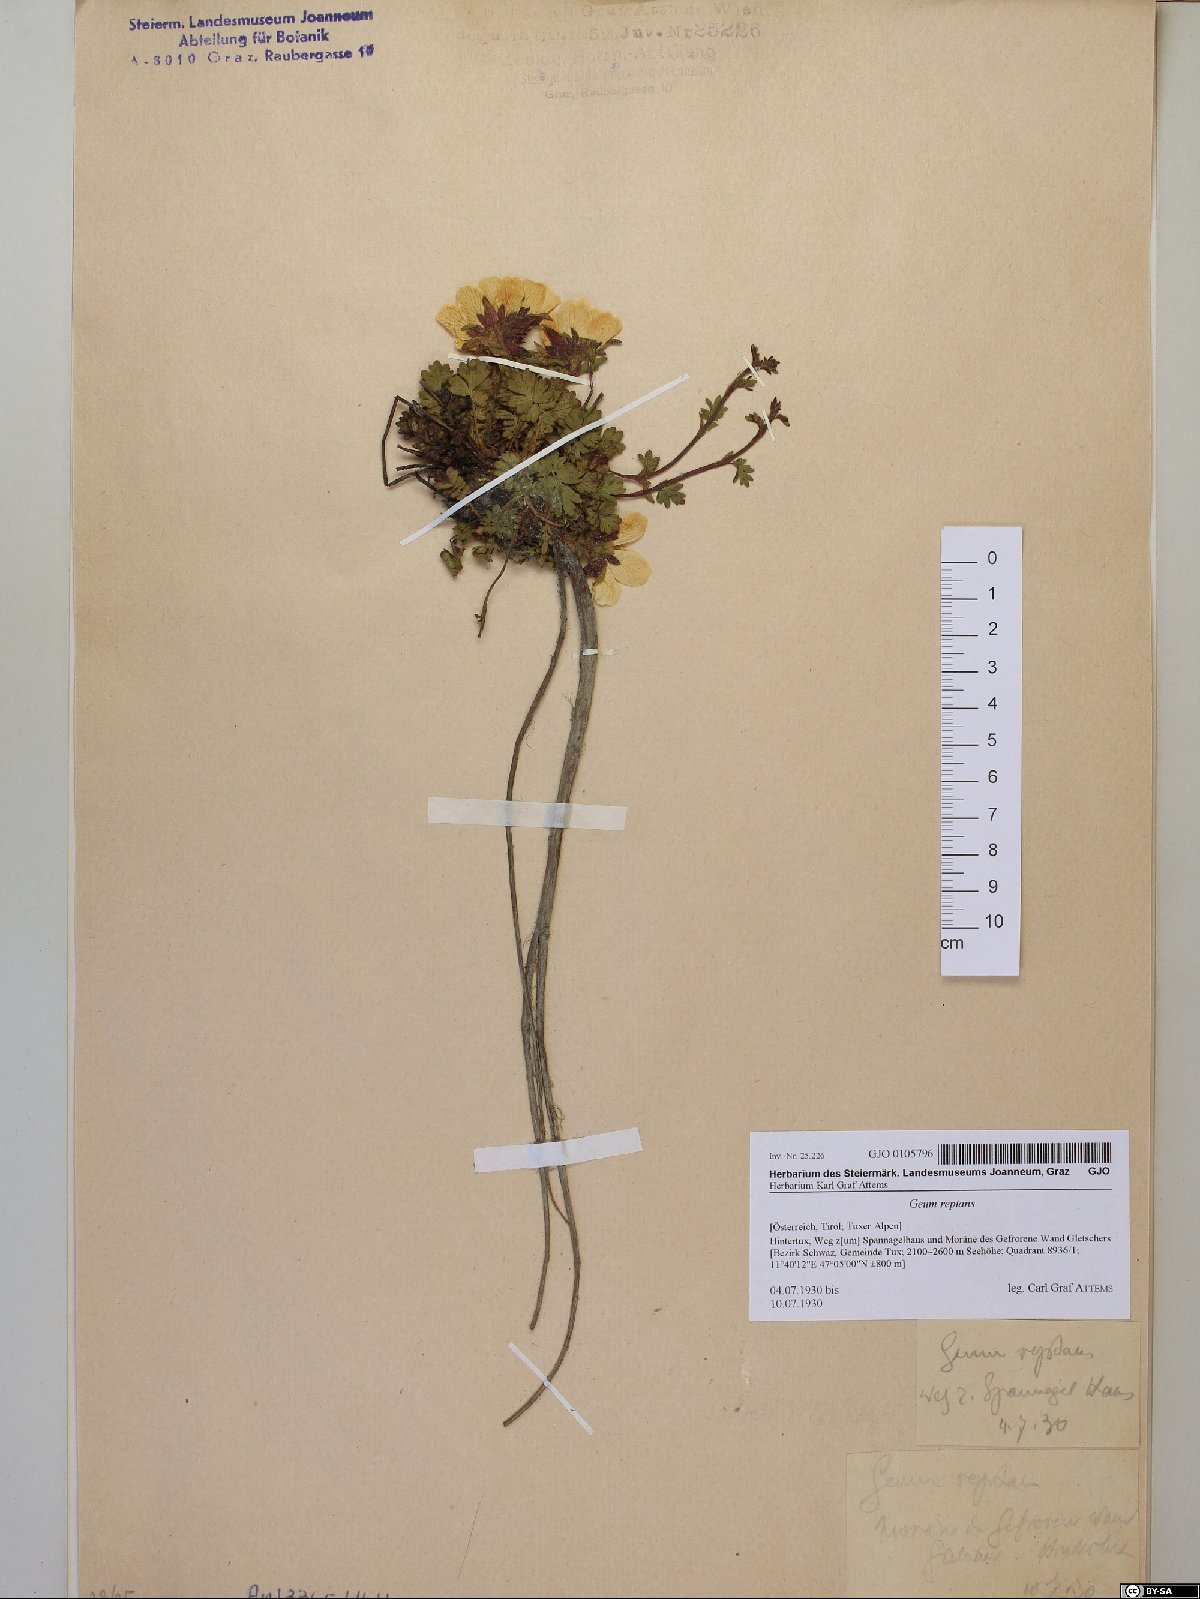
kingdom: Plantae
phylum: Tracheophyta
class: Magnoliopsida
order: Rosales
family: Rosaceae
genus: Geum
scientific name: Geum reptans
